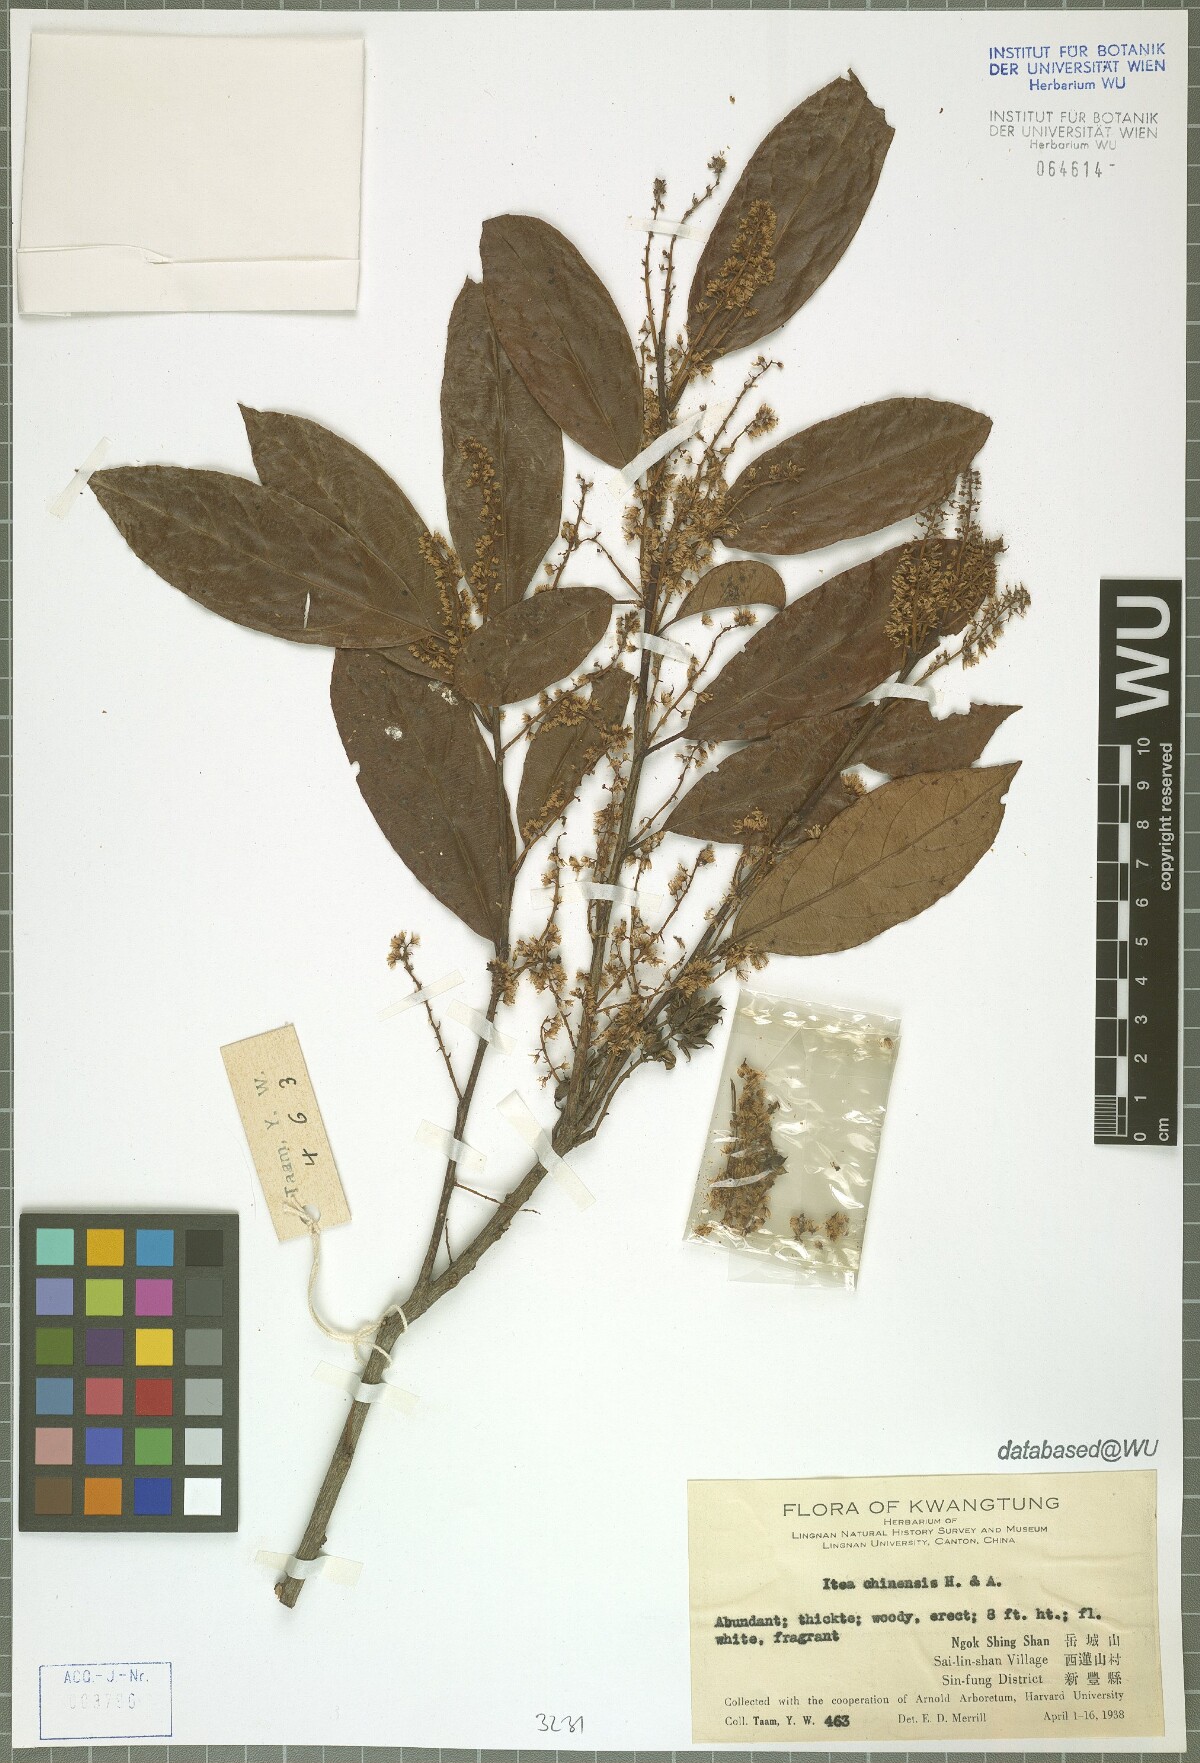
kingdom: Plantae
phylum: Tracheophyta
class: Magnoliopsida
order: Saxifragales
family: Iteaceae
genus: Itea
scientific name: Itea chinensis
